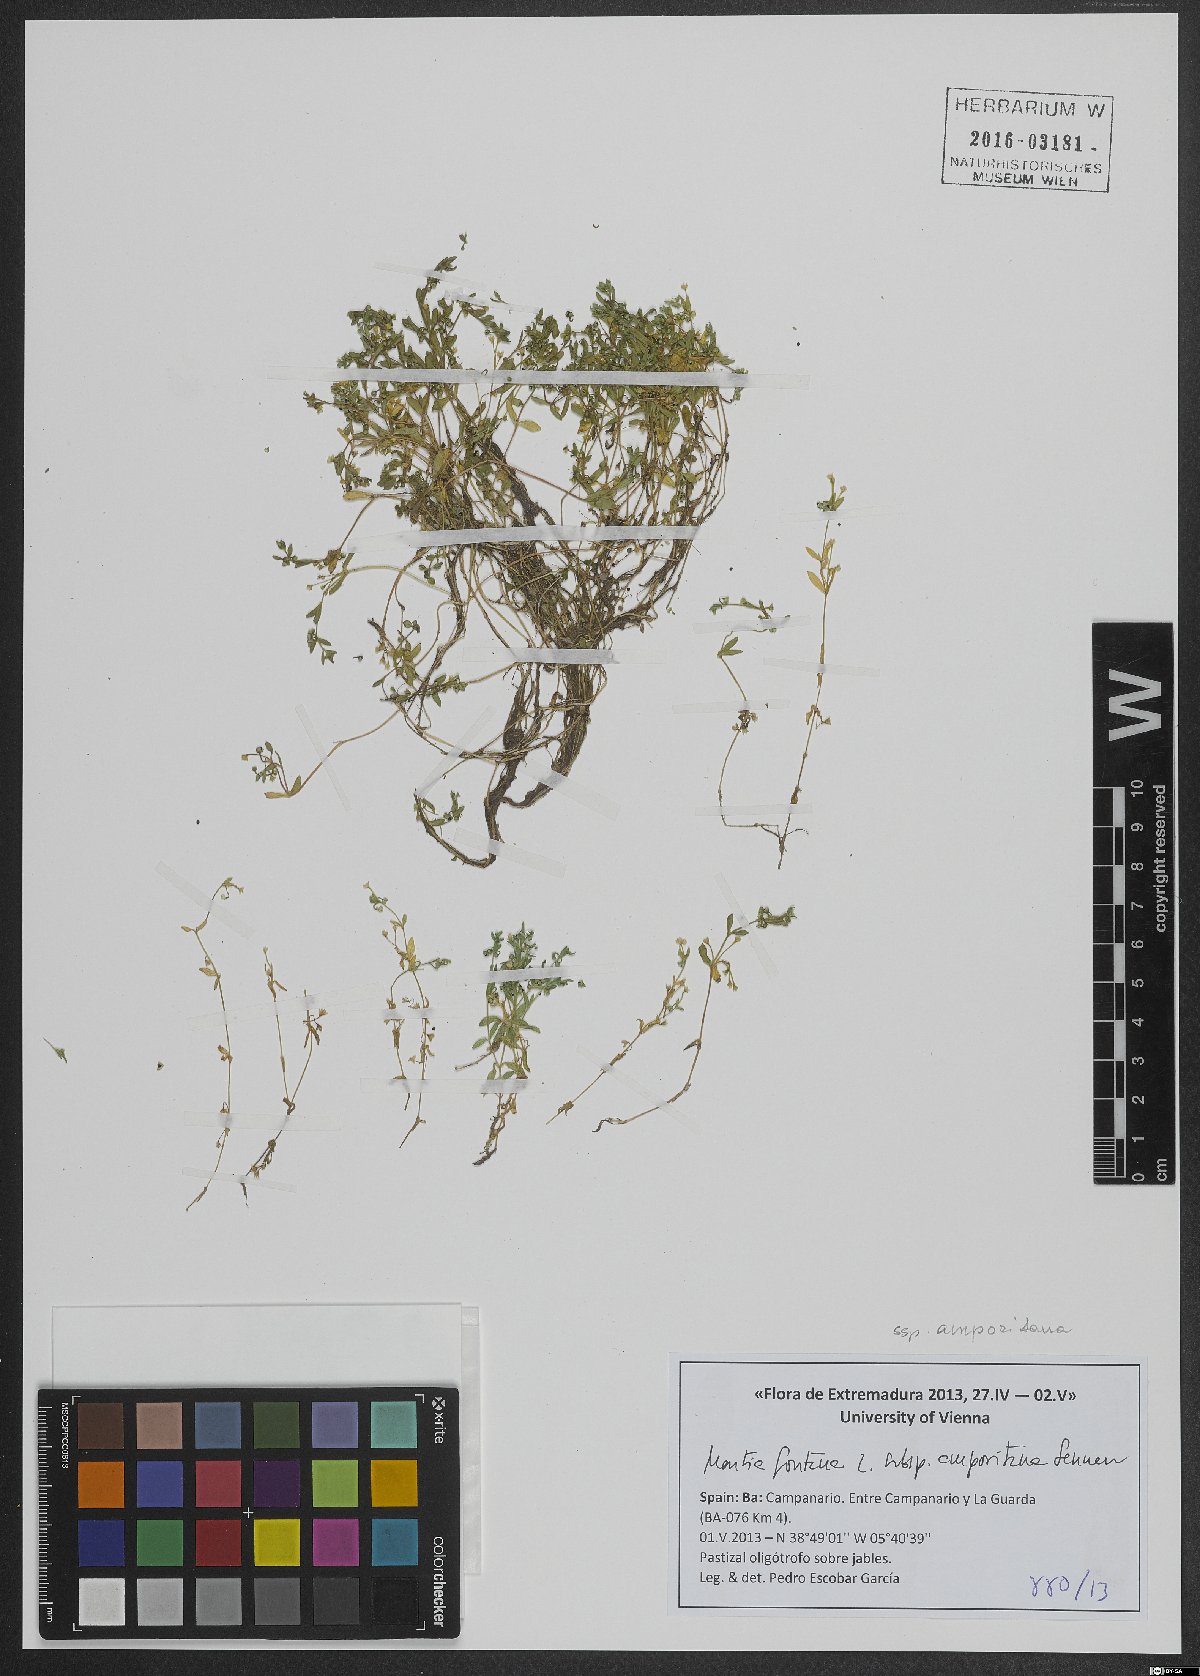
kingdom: Plantae
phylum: Tracheophyta
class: Magnoliopsida
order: Caryophyllales
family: Montiaceae
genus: Montia
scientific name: Montia fontana
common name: Blinks
